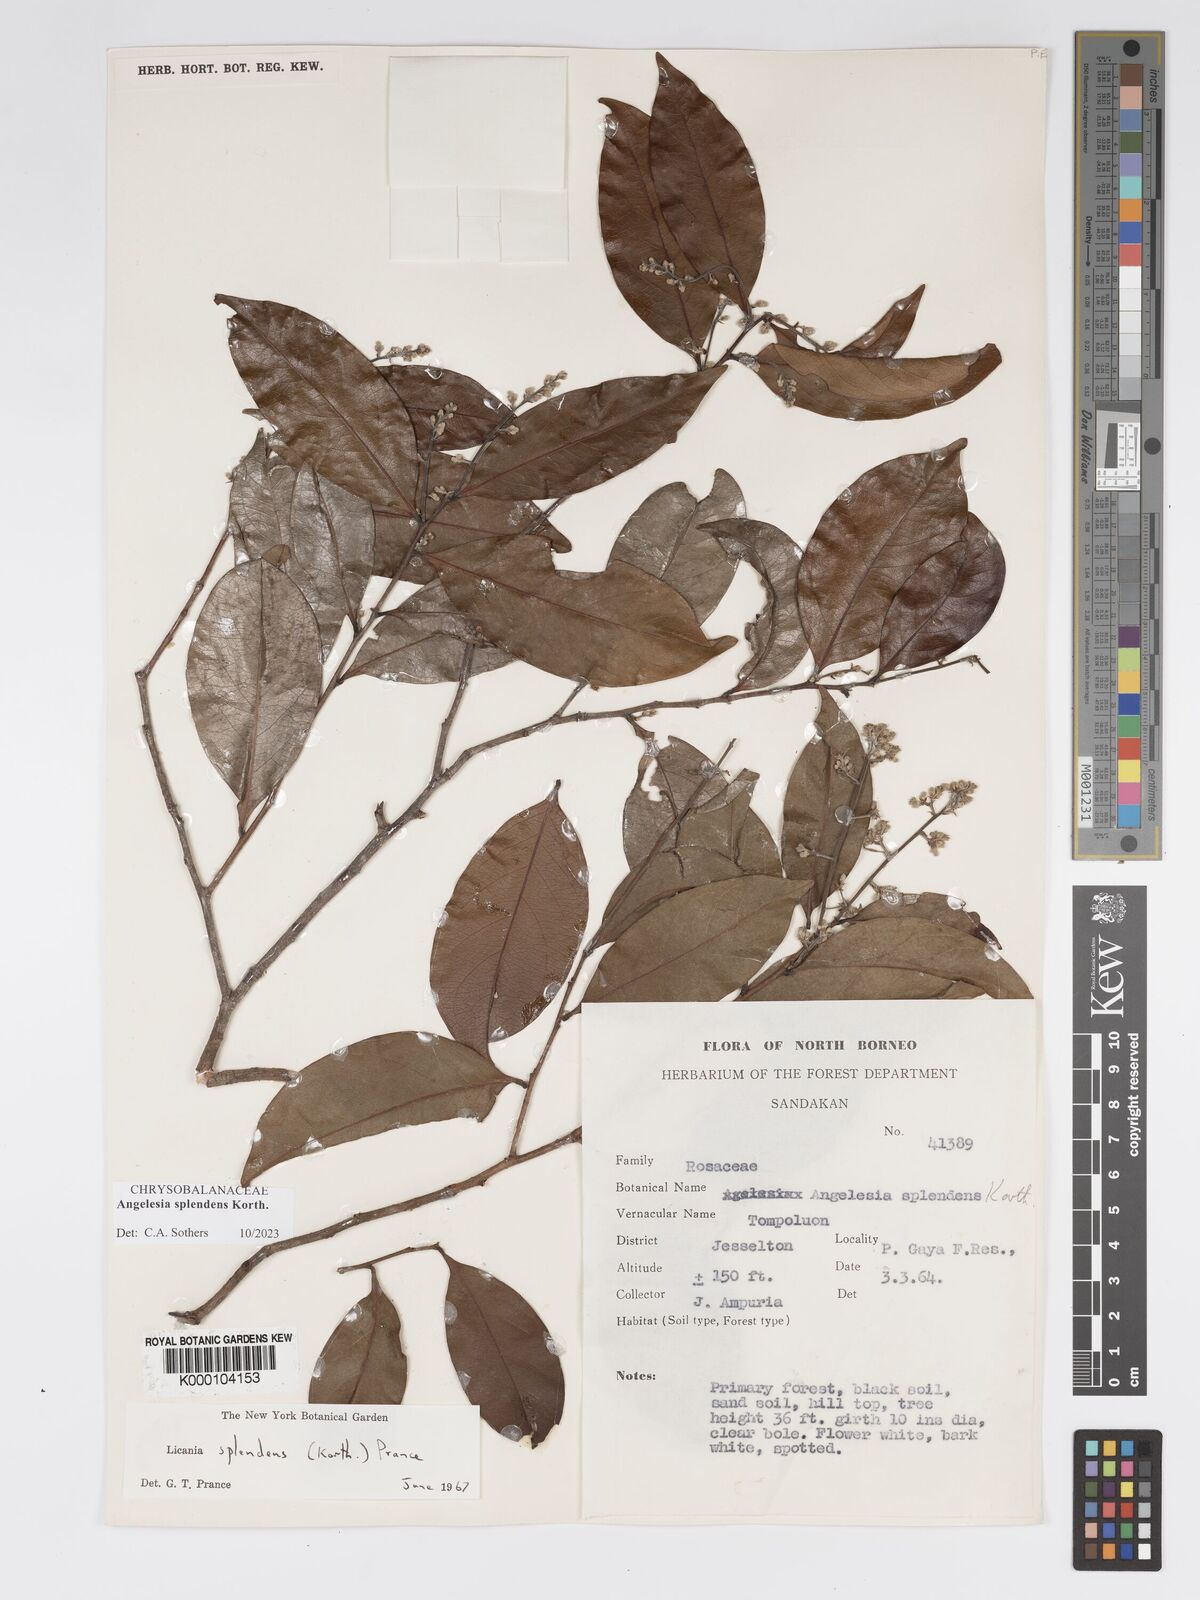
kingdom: Plantae
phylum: Tracheophyta
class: Magnoliopsida
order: Malpighiales
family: Chrysobalanaceae
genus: Angelesia
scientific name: Angelesia splendens
